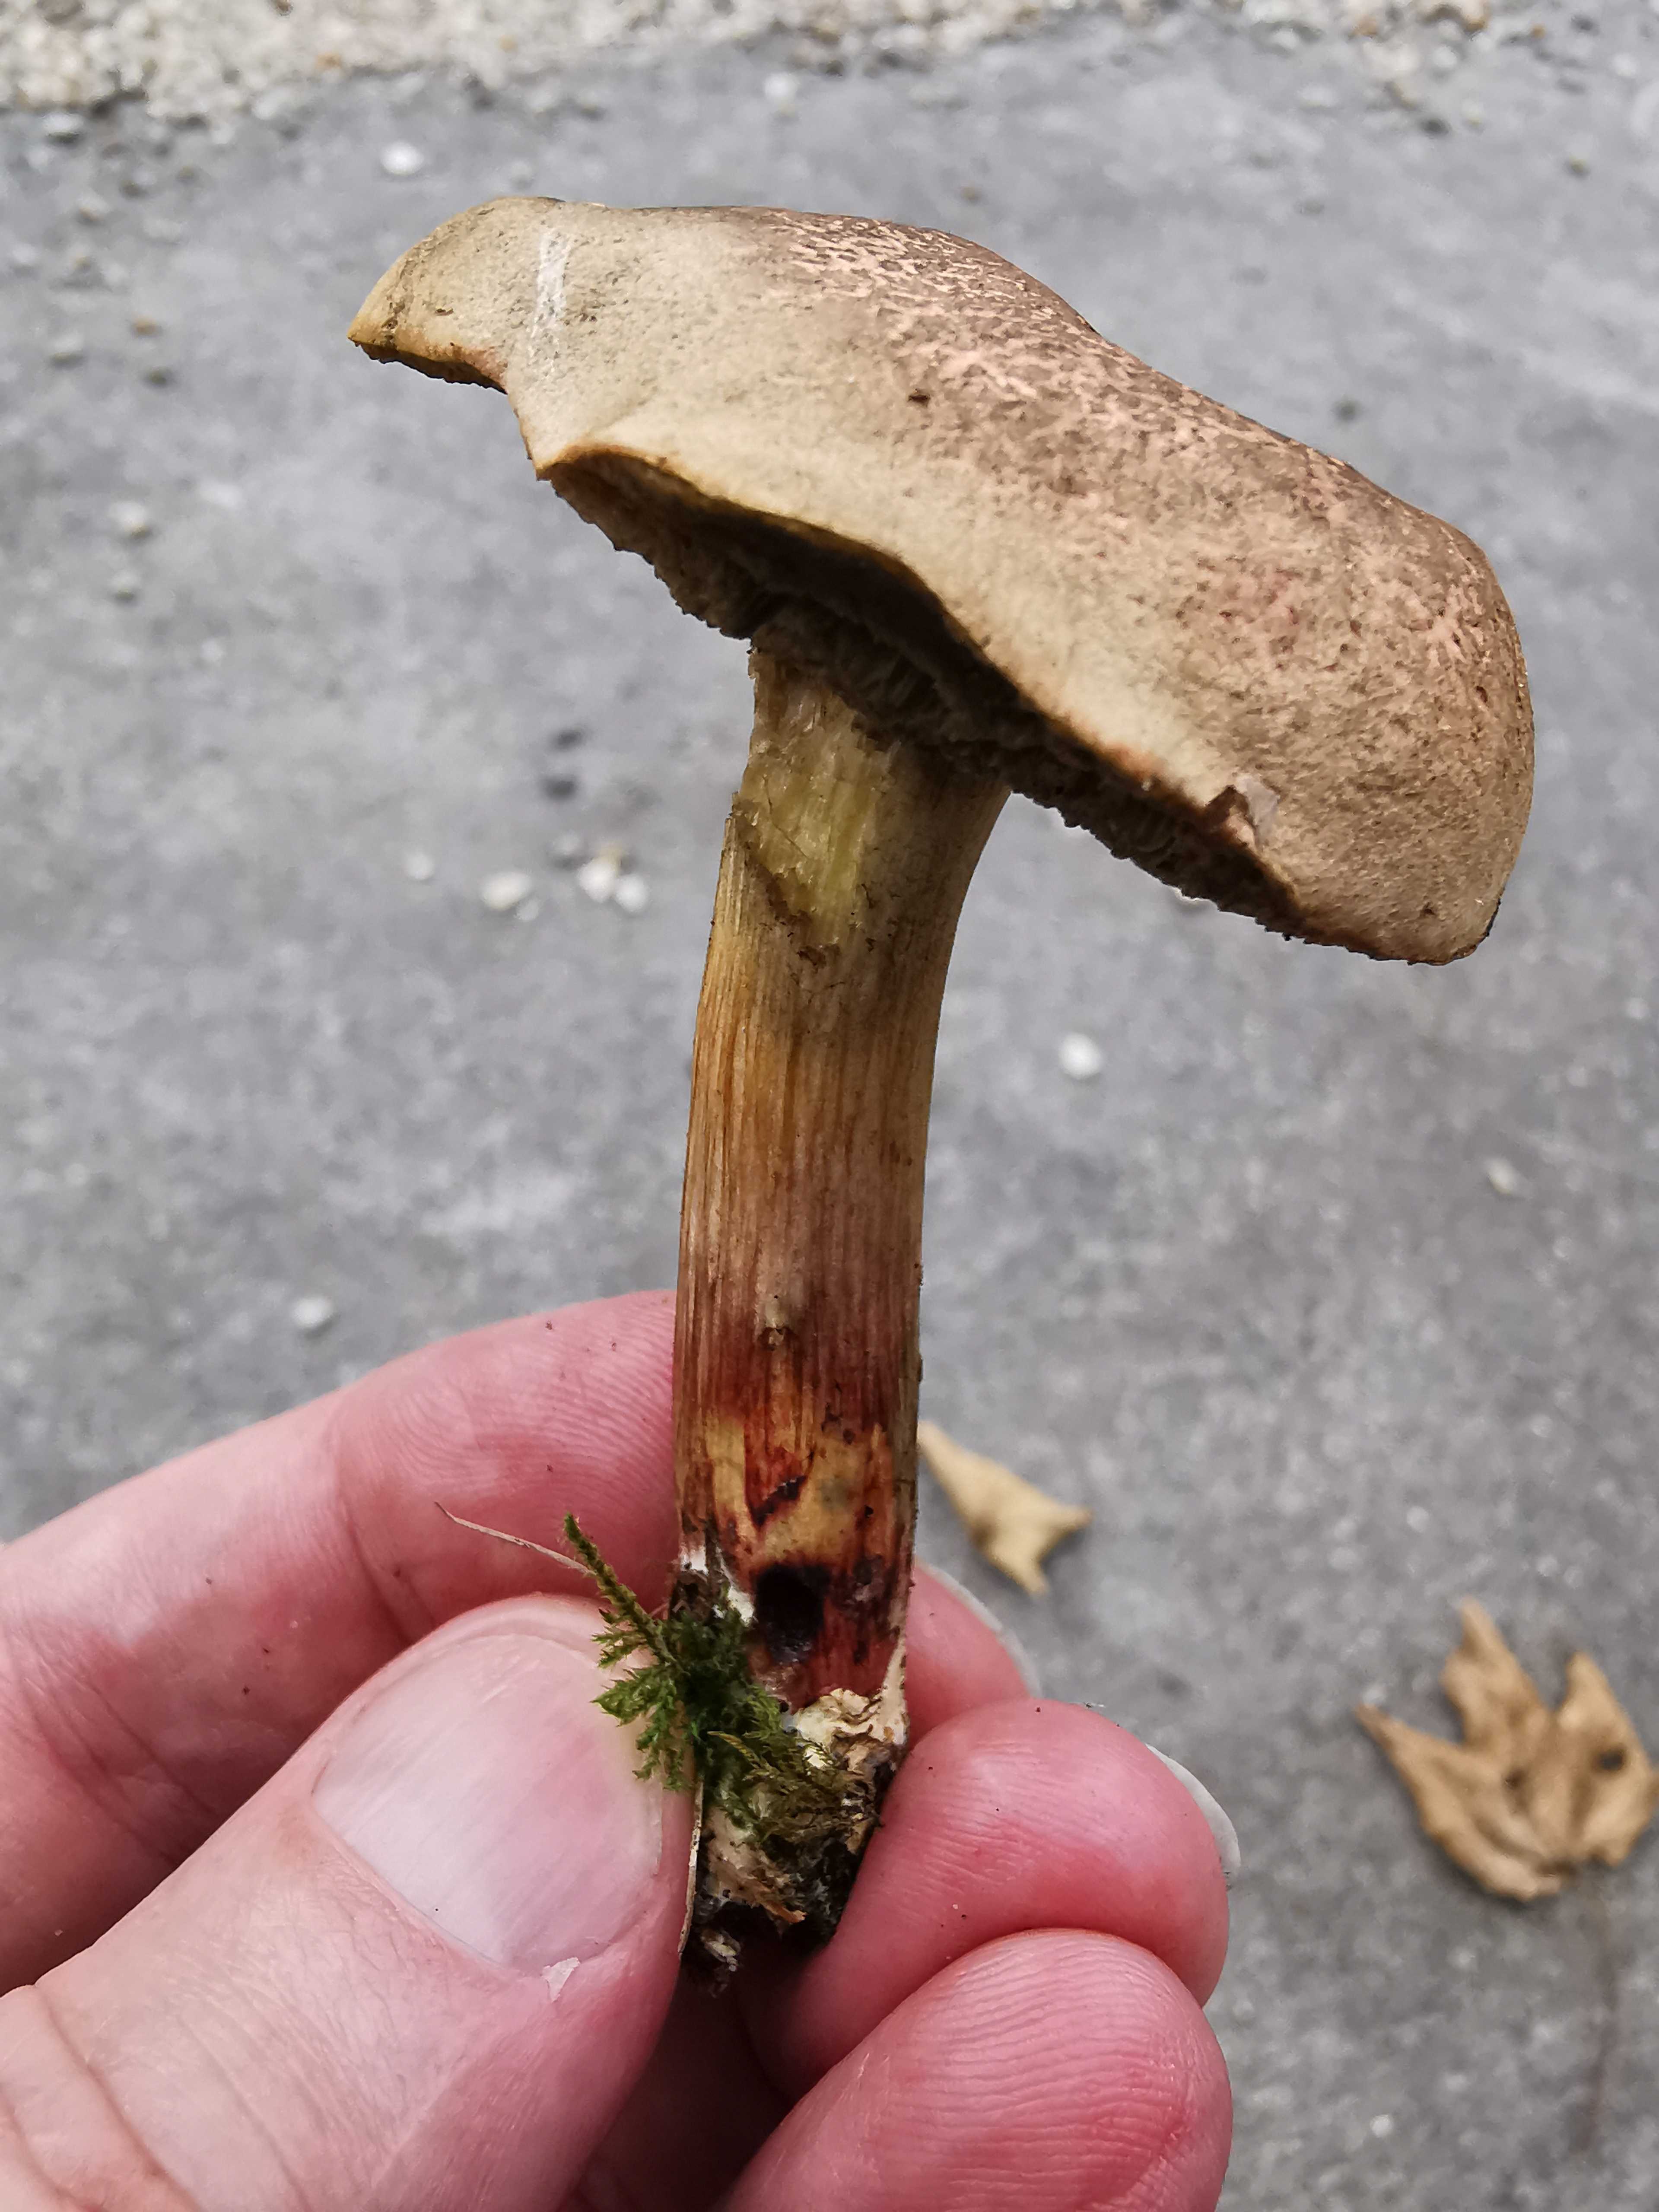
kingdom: Fungi
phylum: Basidiomycota
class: Agaricomycetes
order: Boletales
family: Boletaceae
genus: Xerocomellus
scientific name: Xerocomellus cisalpinus
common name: finsprukken rørhat
